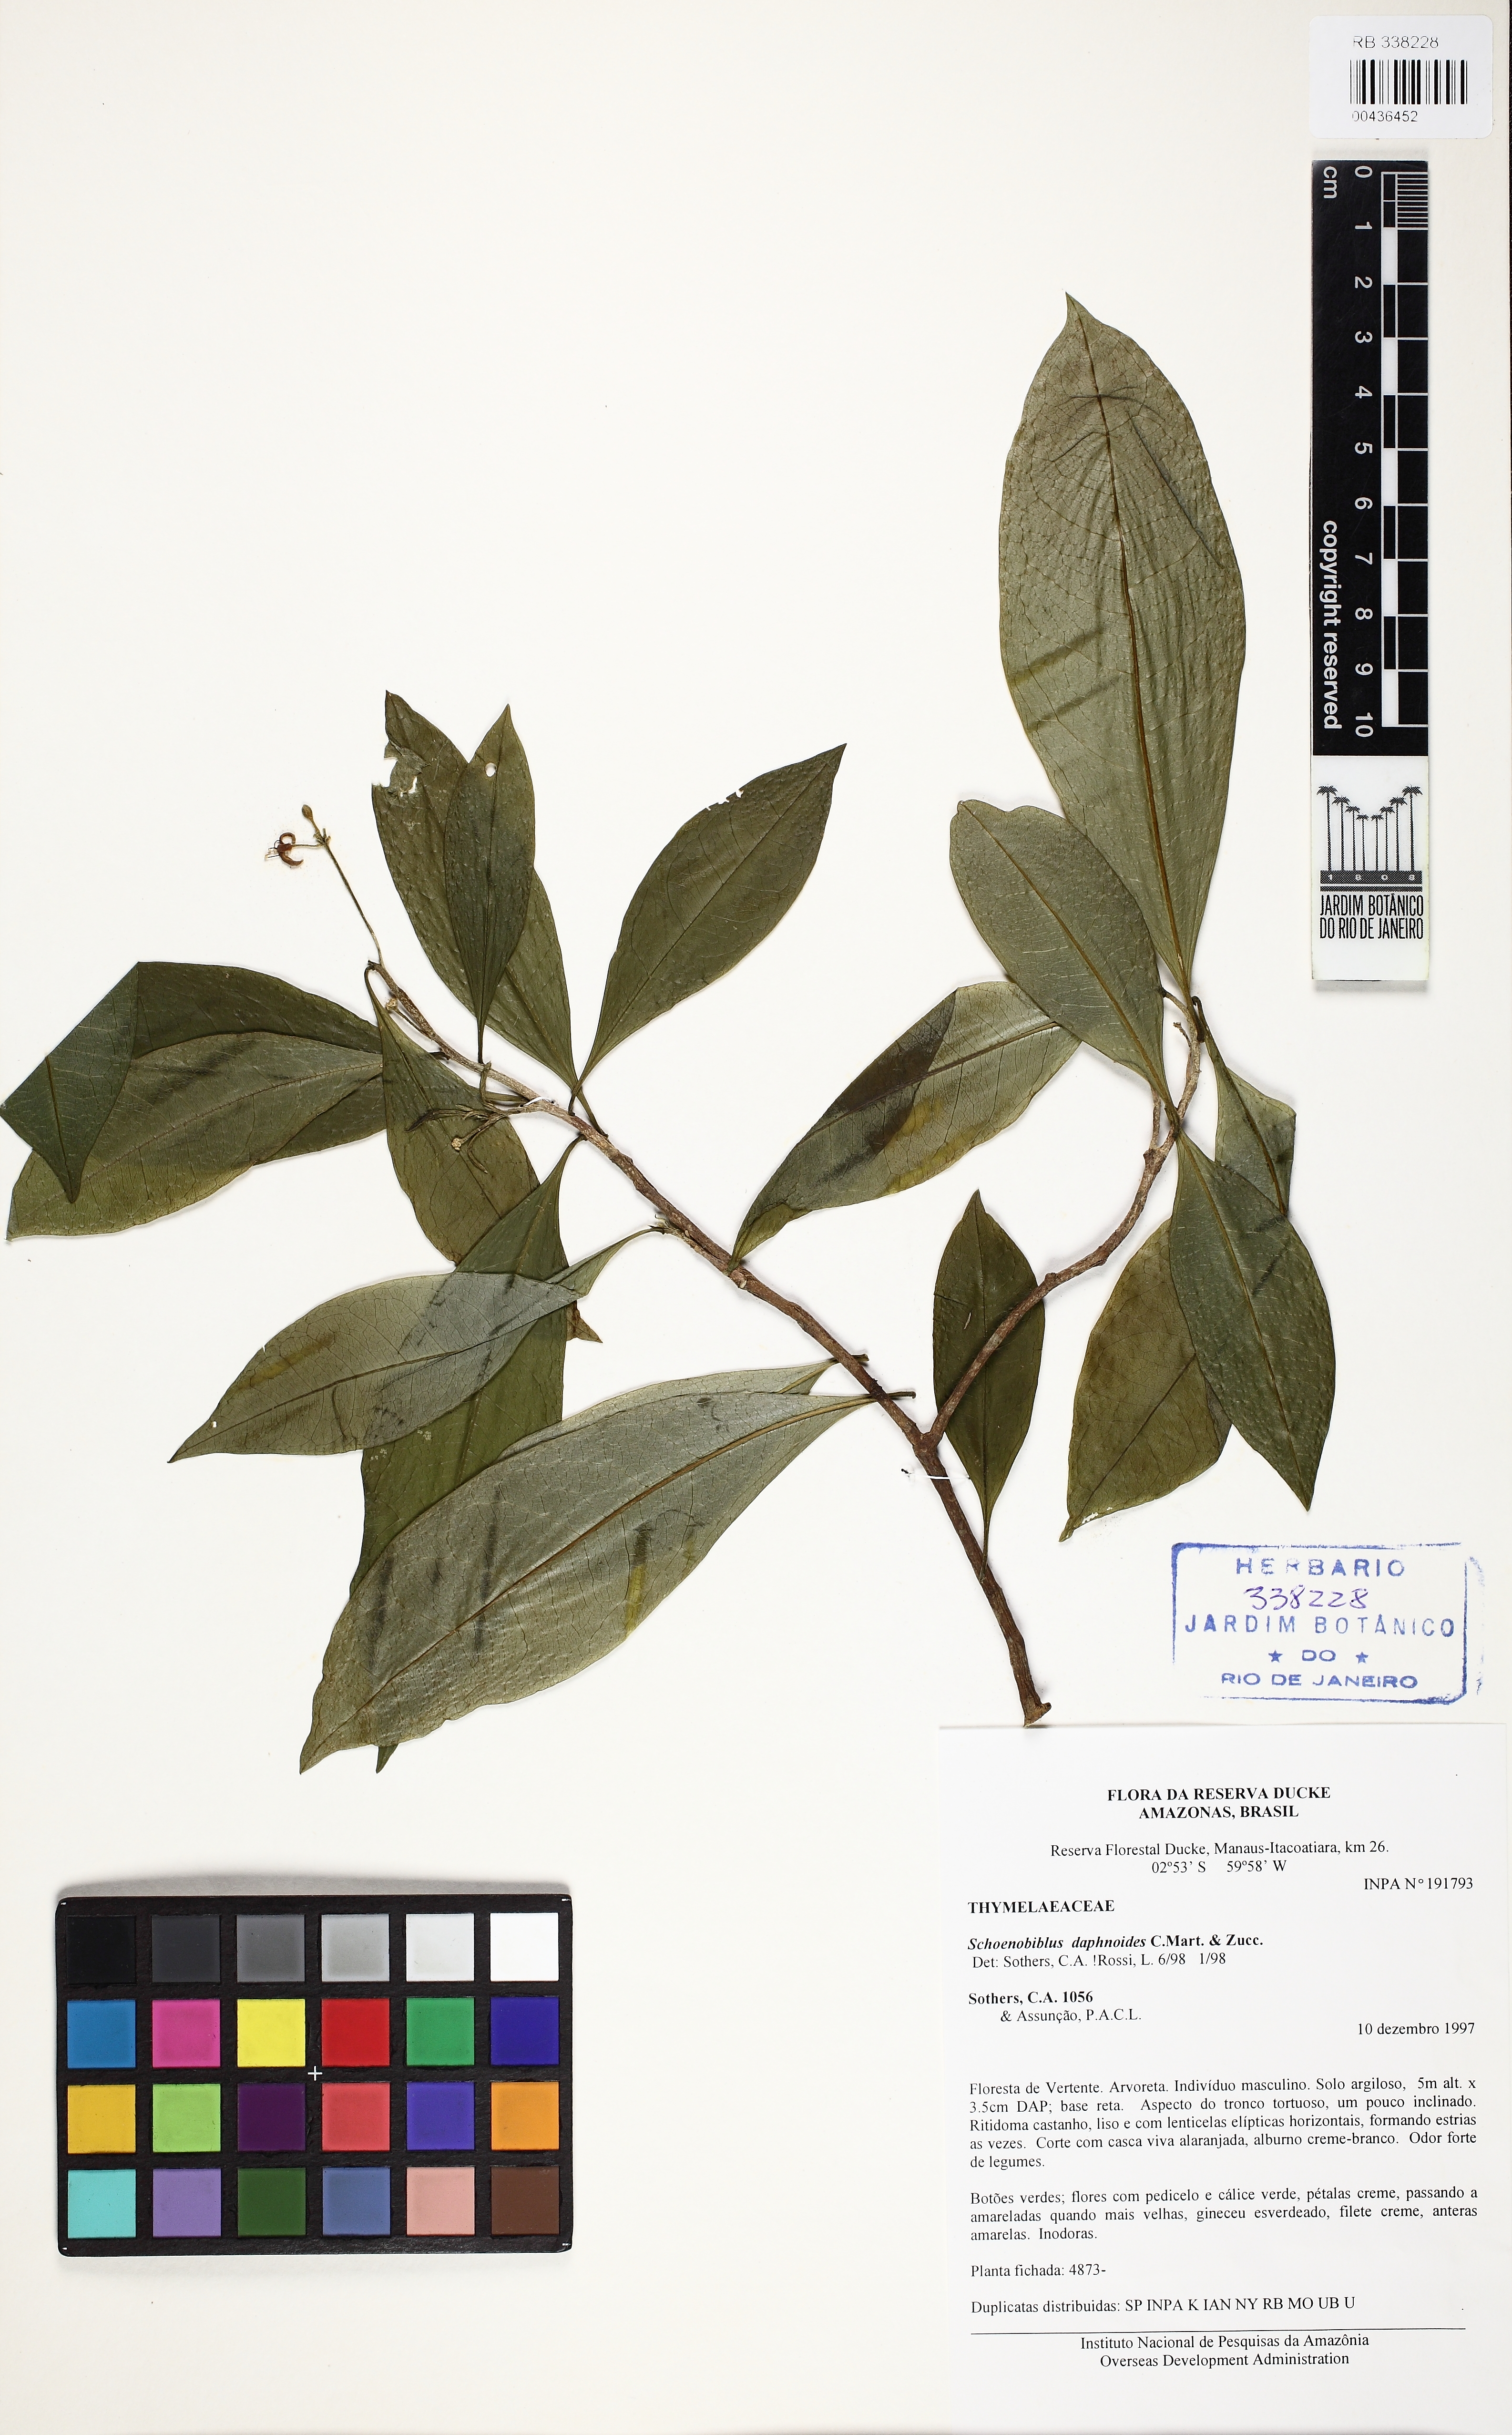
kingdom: Plantae
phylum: Tracheophyta
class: Magnoliopsida
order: Malvales
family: Thymelaeaceae
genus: Schoenobiblus
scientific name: Schoenobiblus daphnoides
